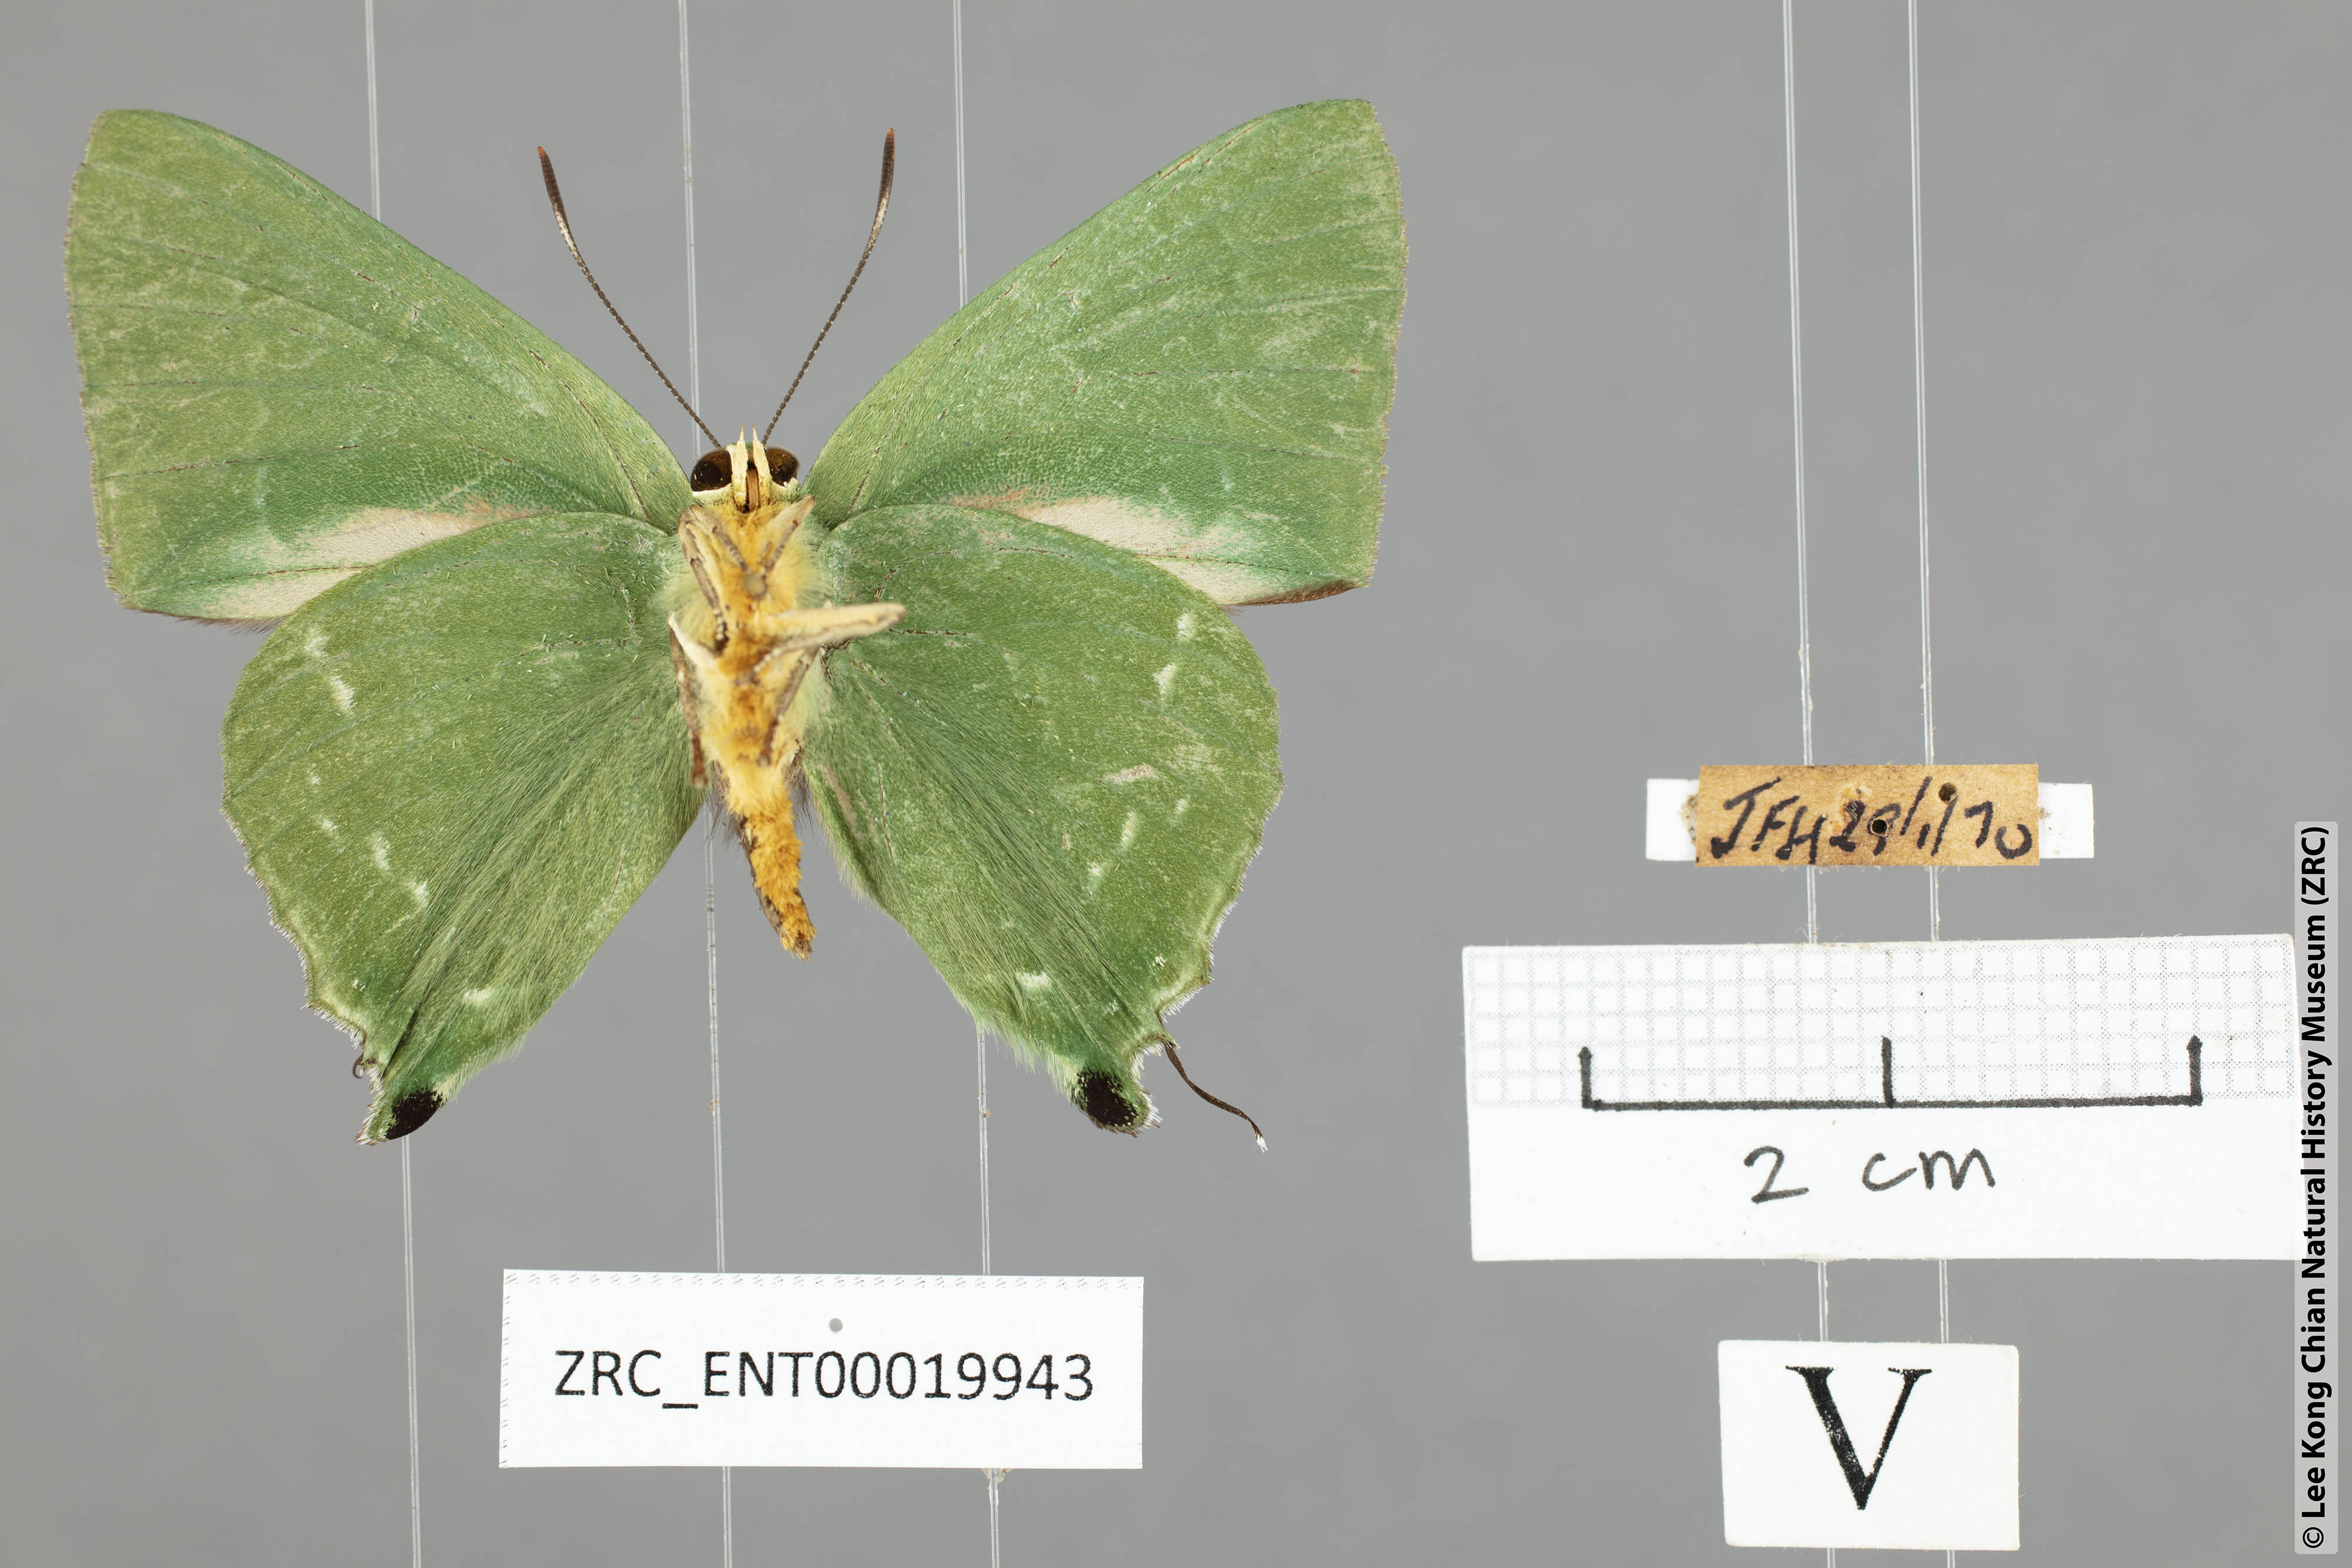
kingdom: Animalia
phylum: Arthropoda
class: Insecta
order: Lepidoptera
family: Lycaenidae
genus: Artipe
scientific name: Artipe eryx
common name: Green flash
